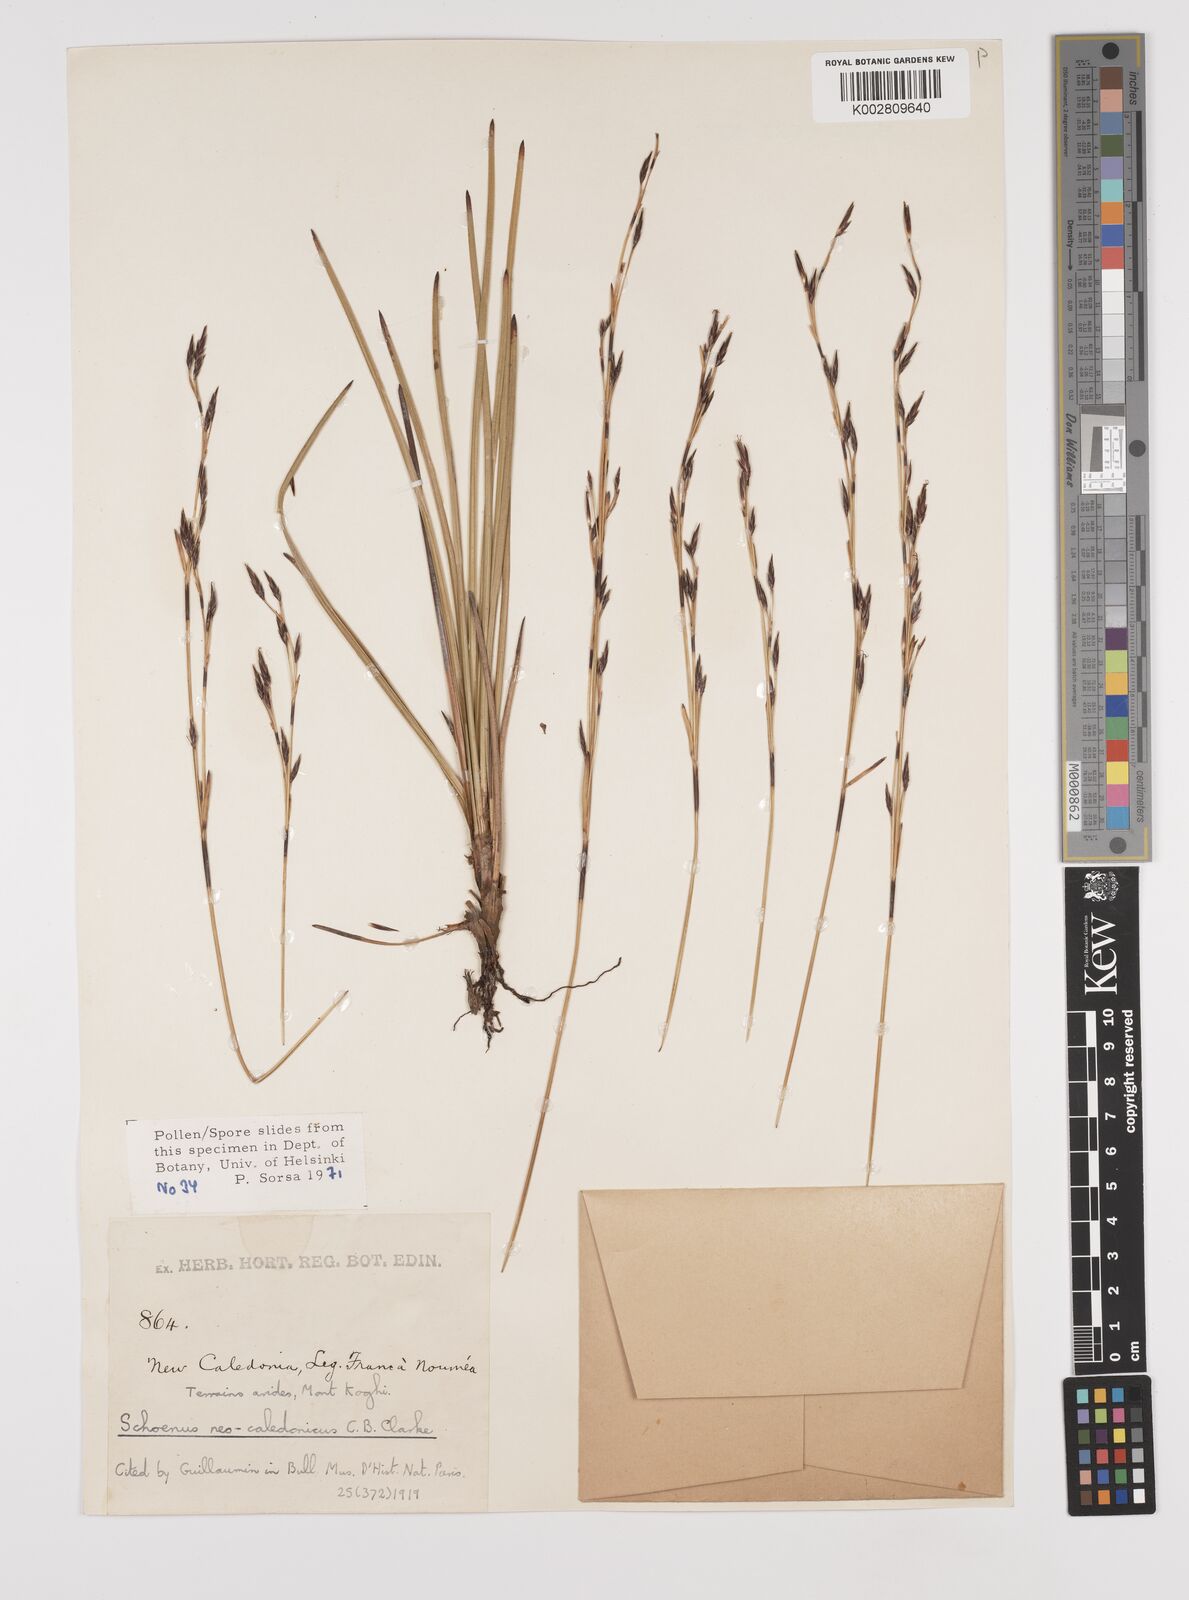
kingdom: Plantae
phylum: Tracheophyta
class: Liliopsida
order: Poales
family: Cyperaceae
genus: Schoenus
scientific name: Schoenus neocaledonicus
